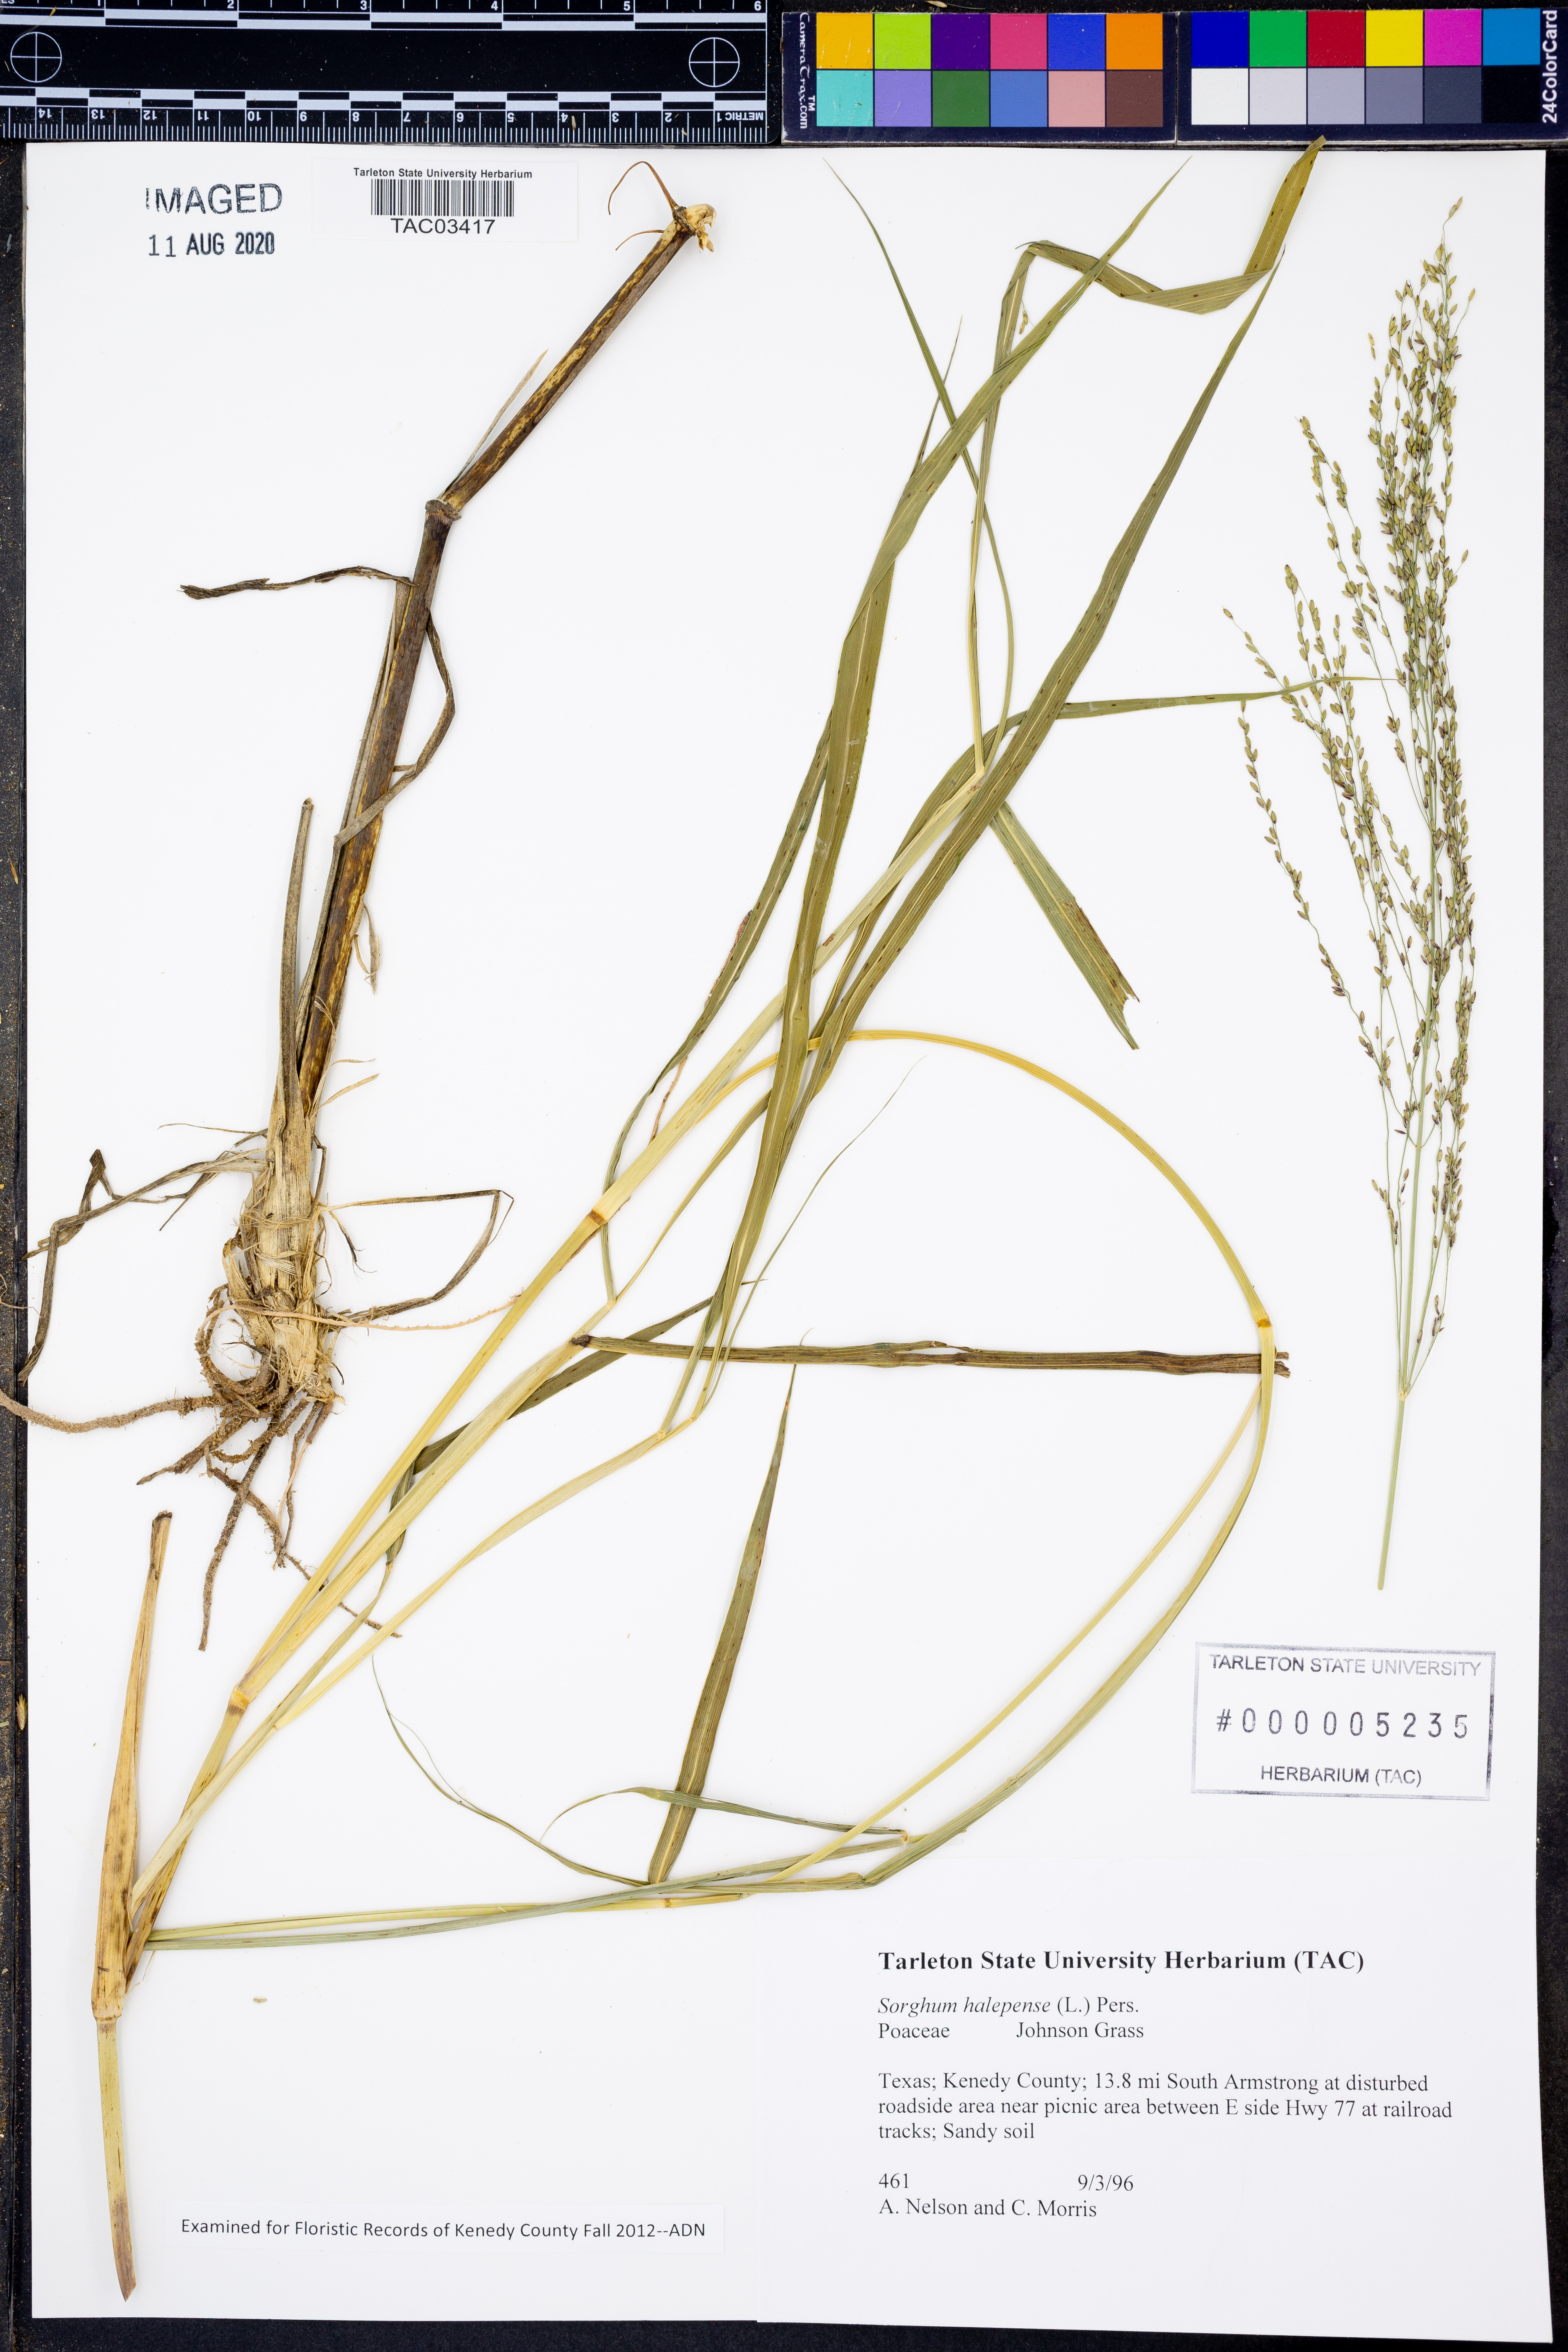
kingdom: Plantae
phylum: Tracheophyta
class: Liliopsida
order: Poales
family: Poaceae
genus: Sorghum
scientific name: Sorghum halepense
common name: Johnson-grass
